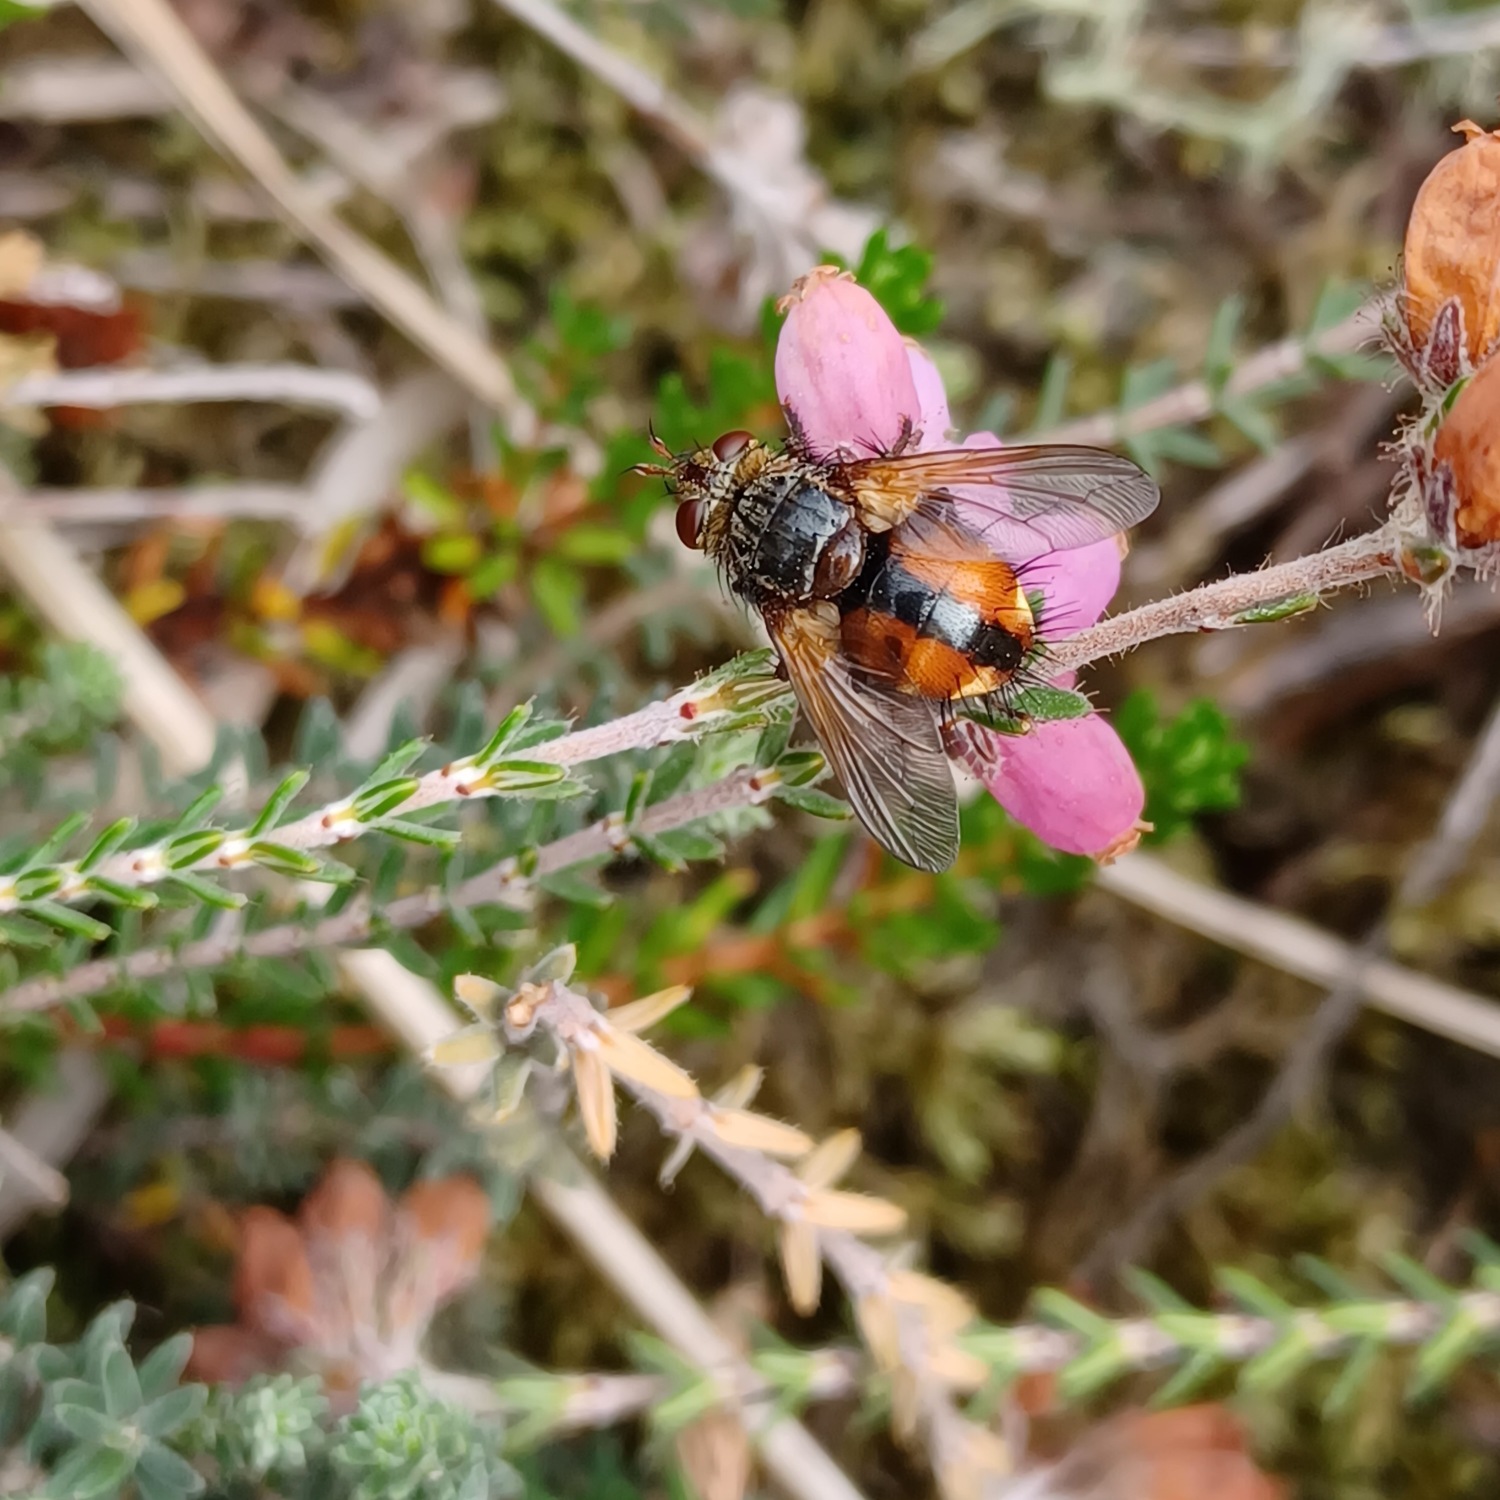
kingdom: Animalia
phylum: Arthropoda
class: Insecta
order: Diptera
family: Tachinidae
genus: Tachina
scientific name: Tachina fera
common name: Mellemfluen oskar
